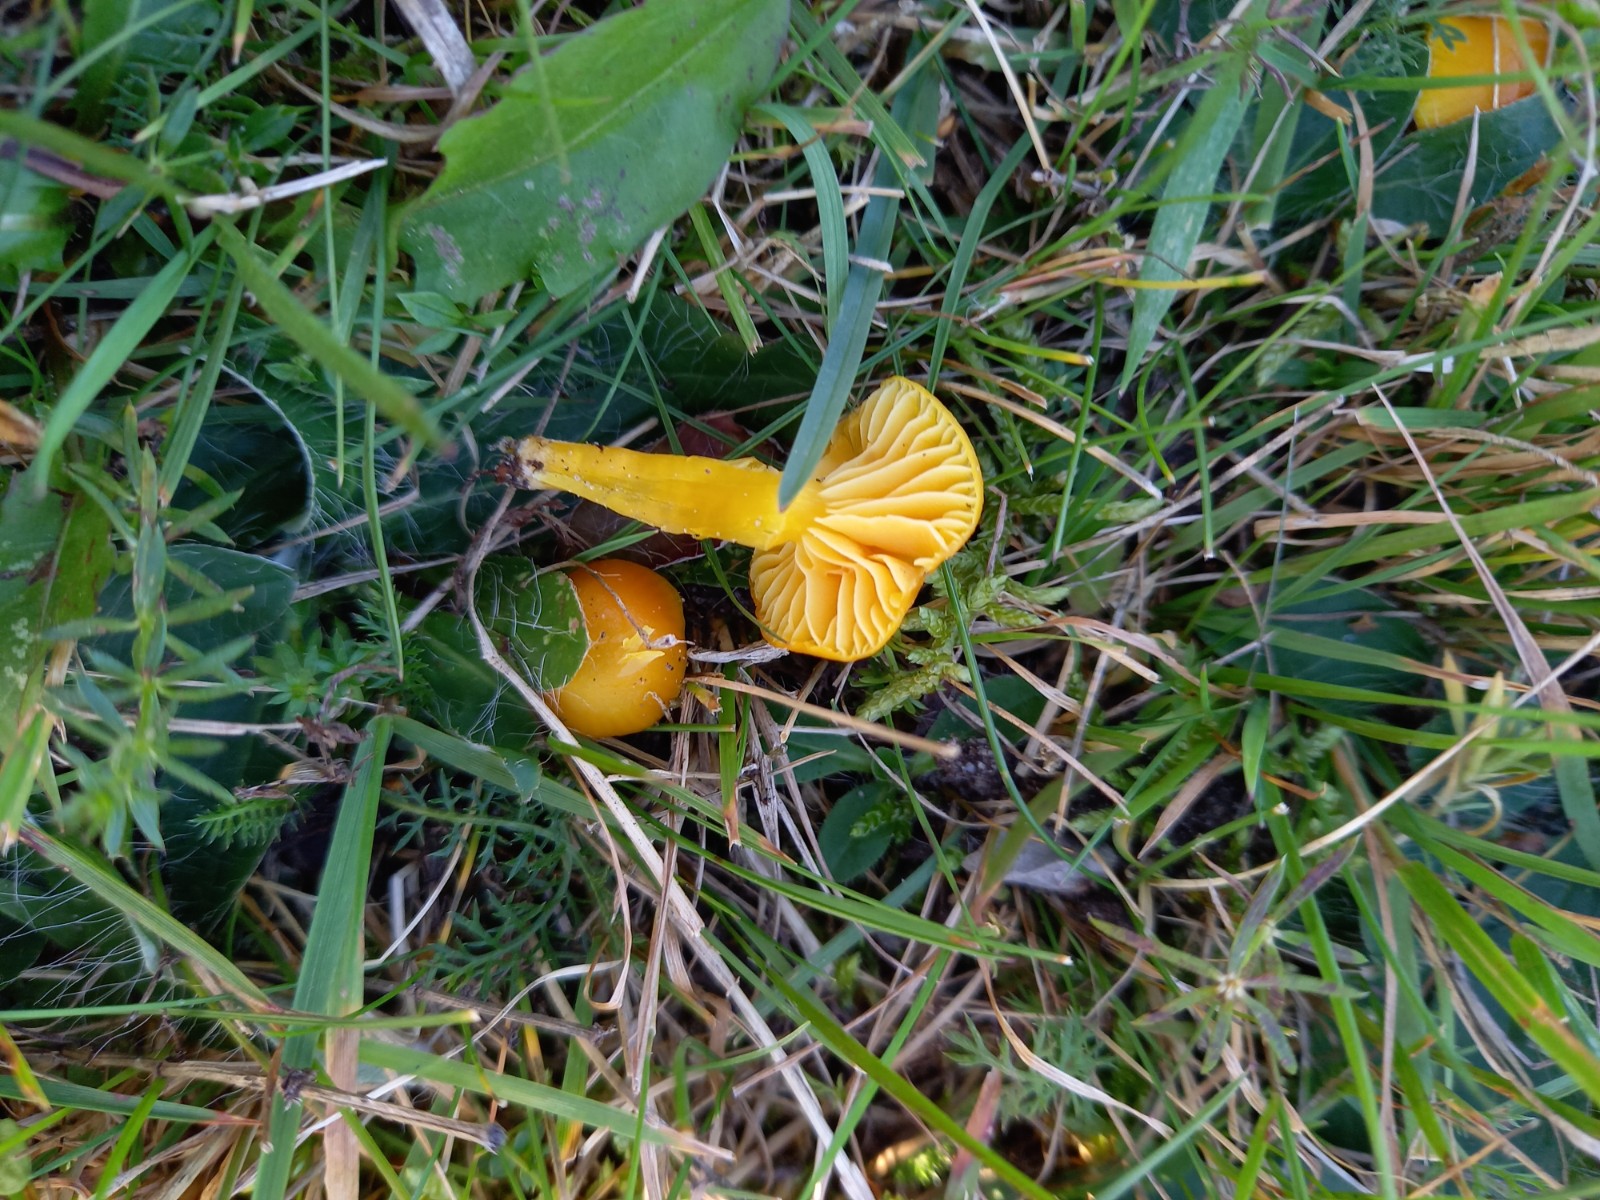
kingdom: Fungi
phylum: Basidiomycota
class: Agaricomycetes
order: Agaricales
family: Hygrophoraceae
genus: Hygrocybe
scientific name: Hygrocybe ceracea
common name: voksgul vokshat
